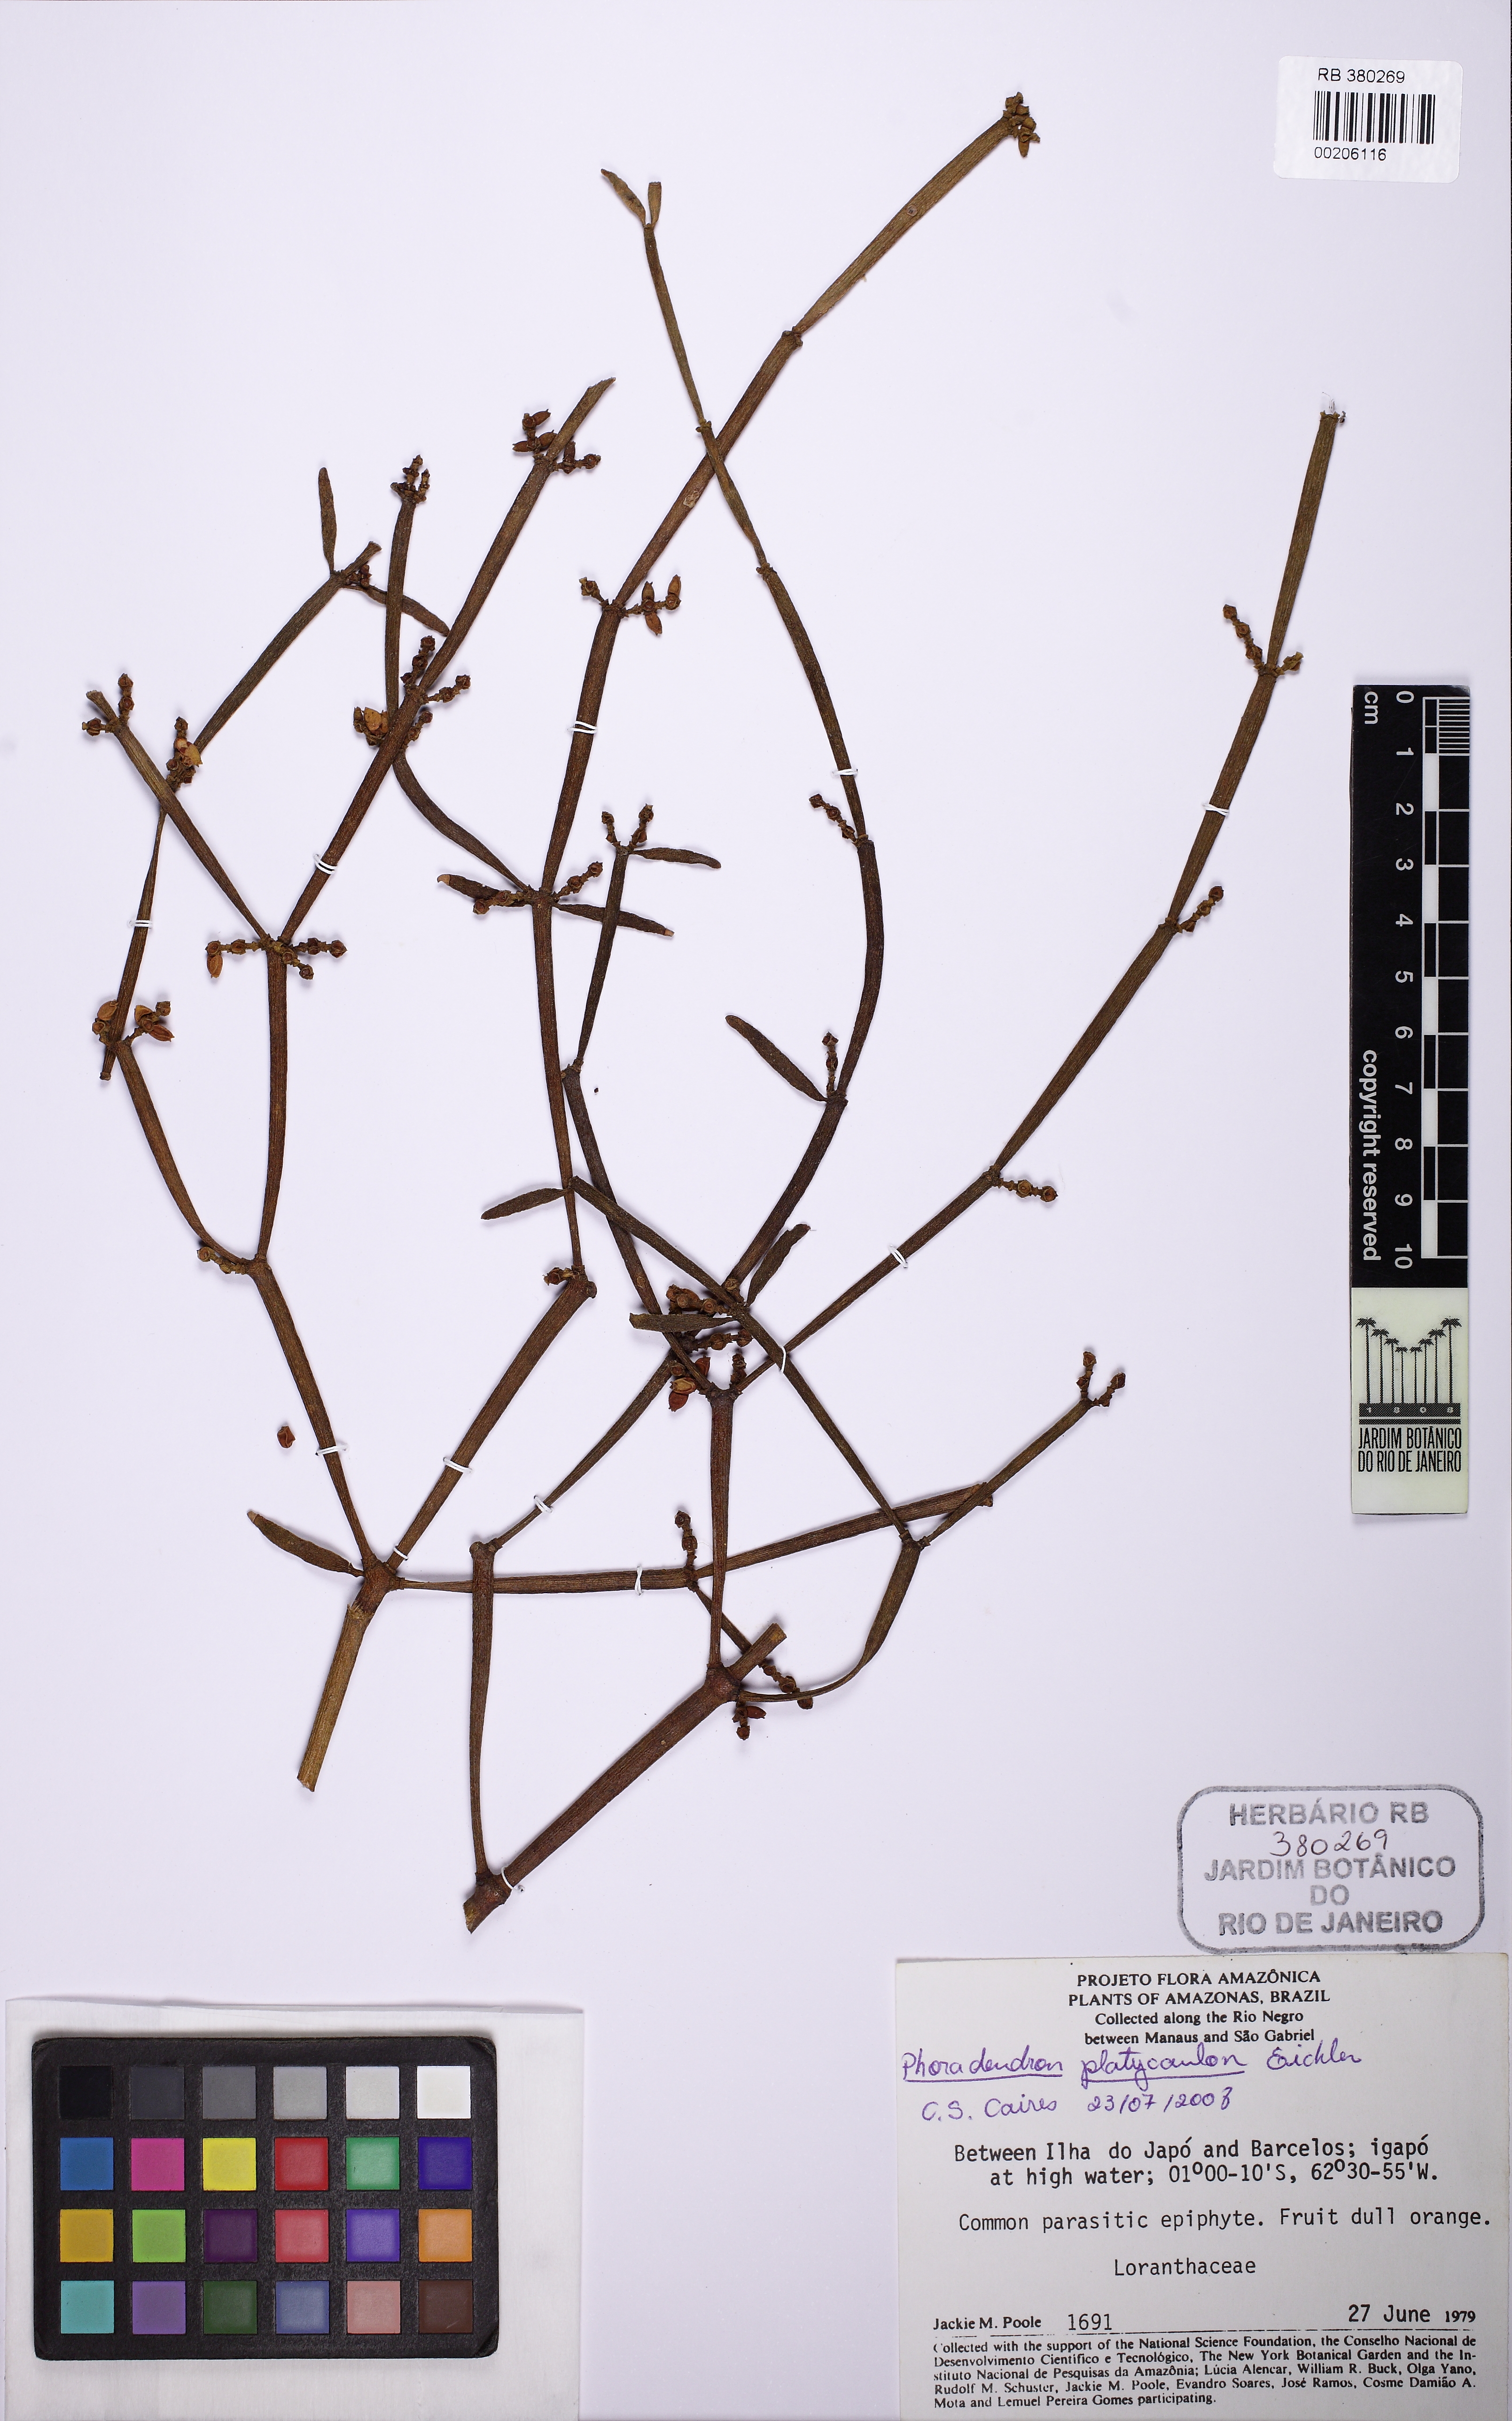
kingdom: Plantae
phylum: Tracheophyta
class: Magnoliopsida
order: Santalales
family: Viscaceae
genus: Phoradendron
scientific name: Phoradendron planiphyllum
